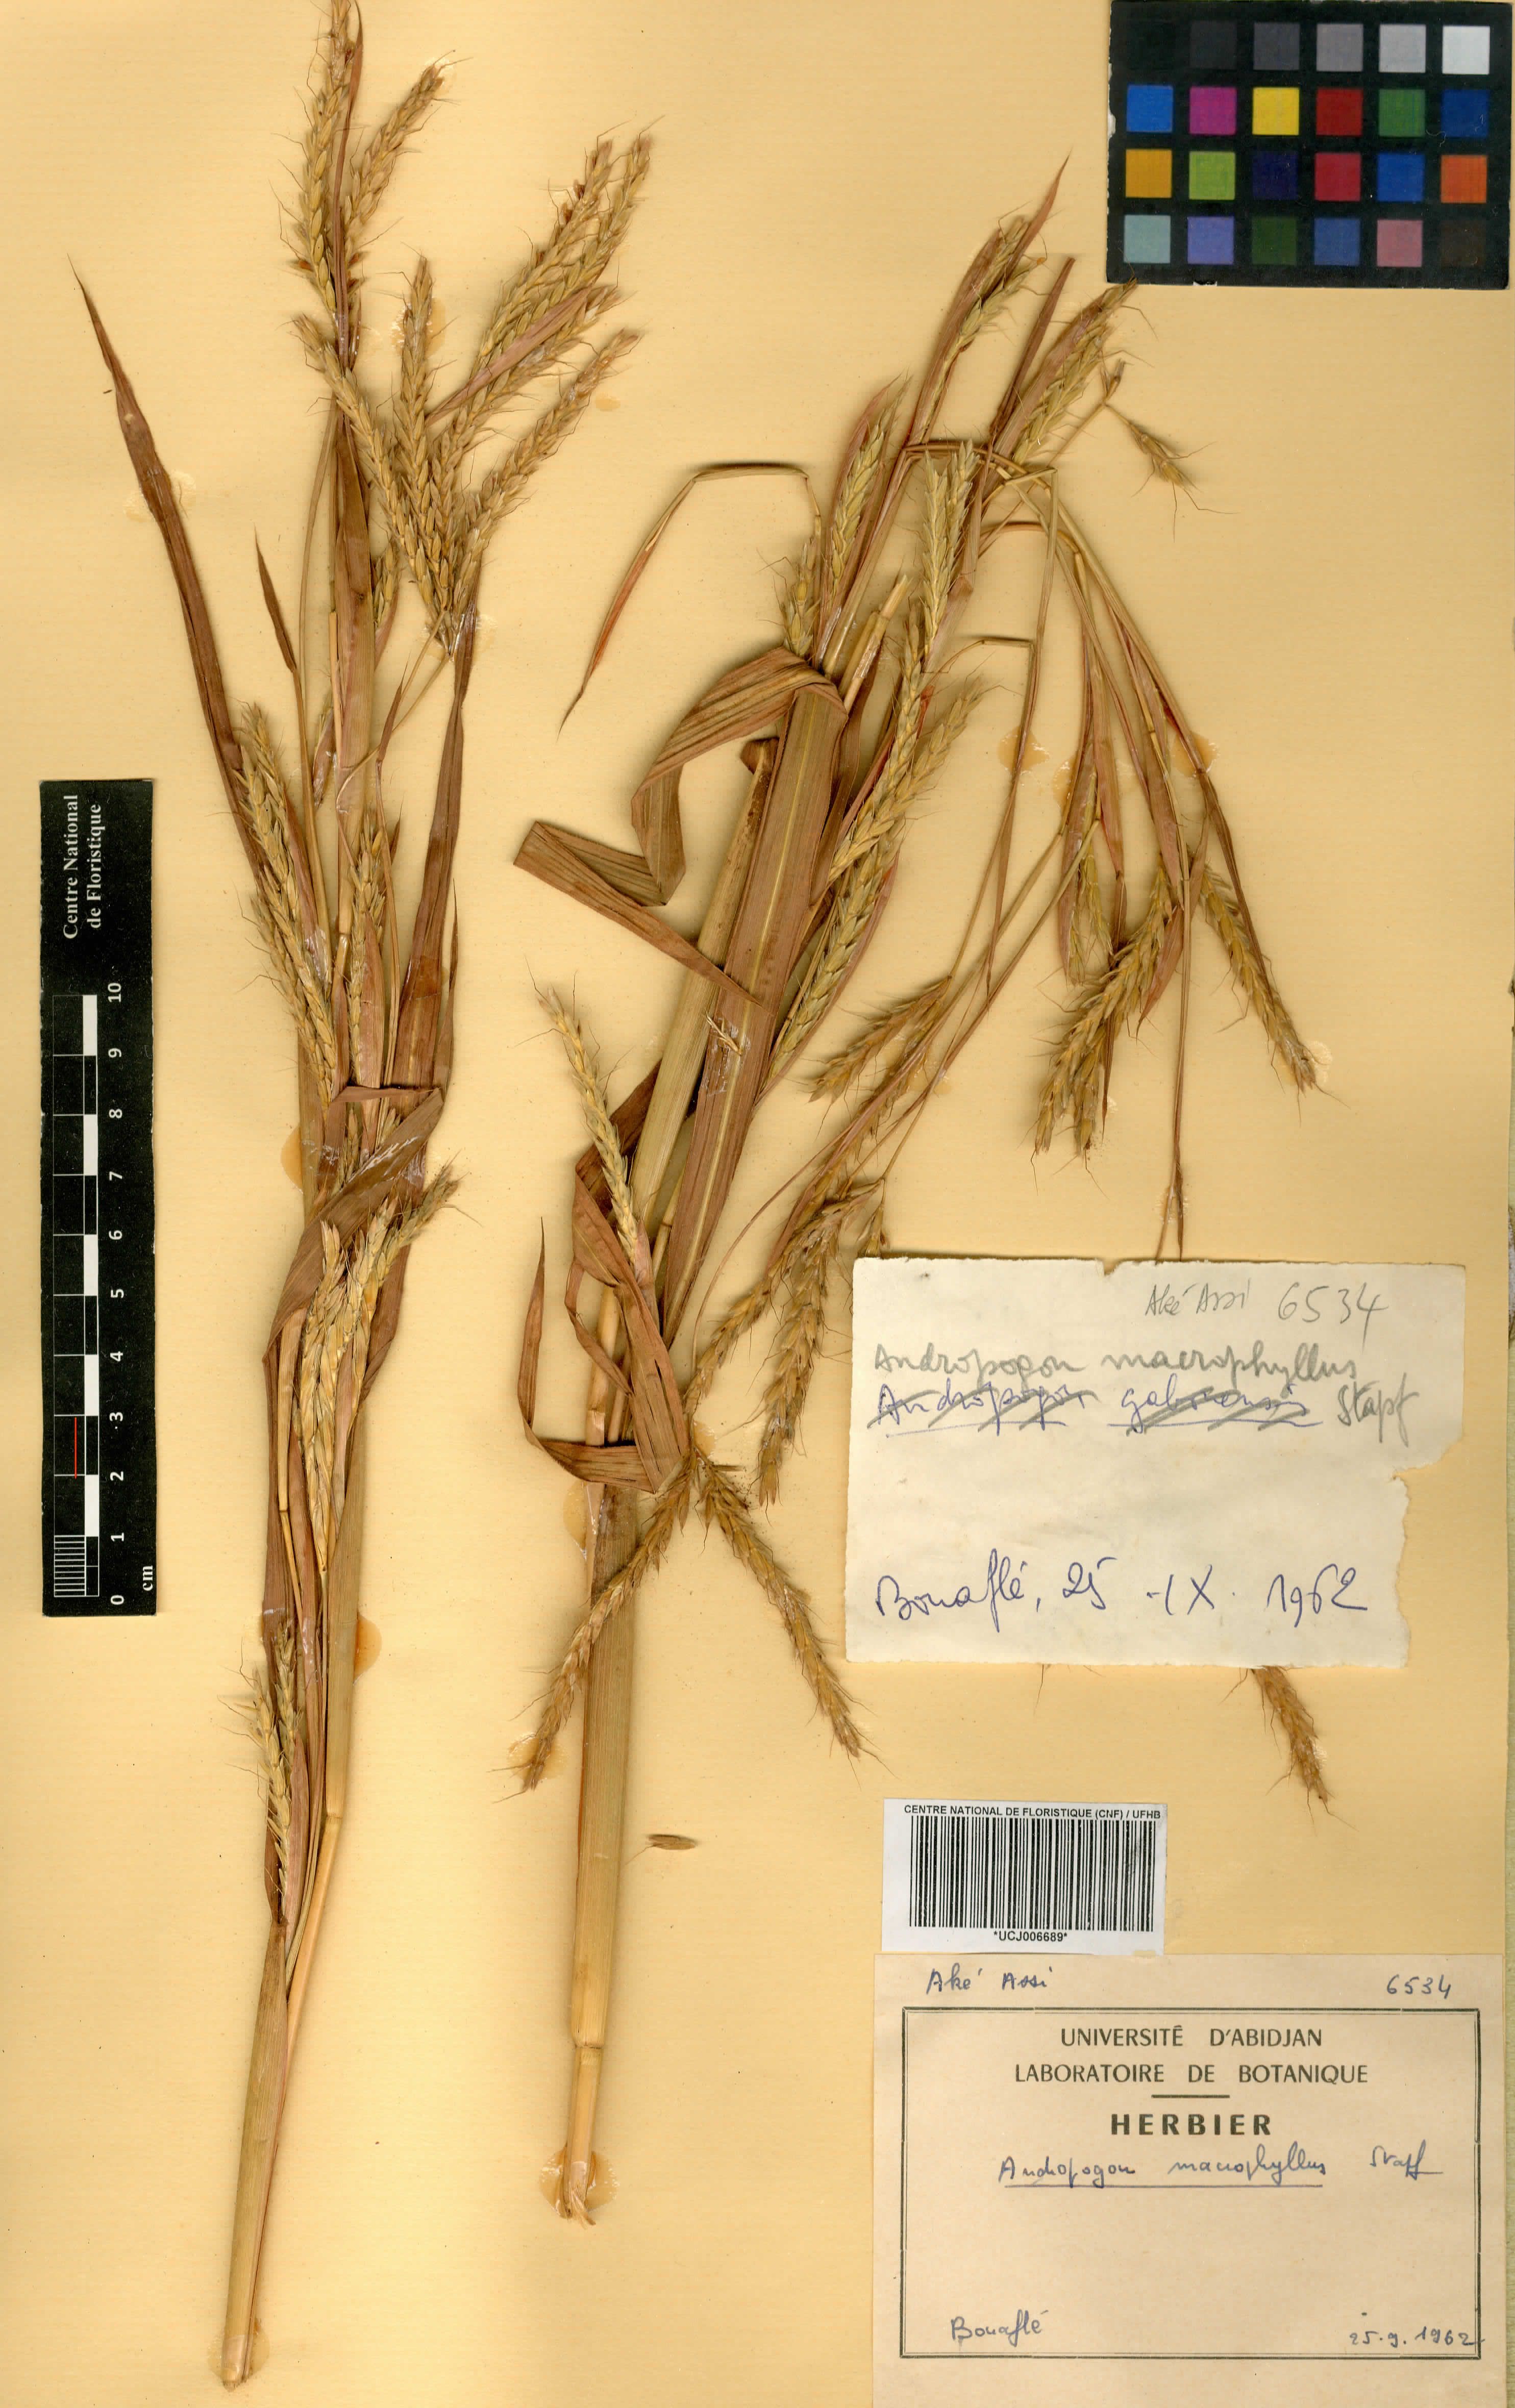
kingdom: Plantae
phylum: Tracheophyta
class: Liliopsida
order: Poales
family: Poaceae
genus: Andropogon
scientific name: Andropogon macrophyllus
